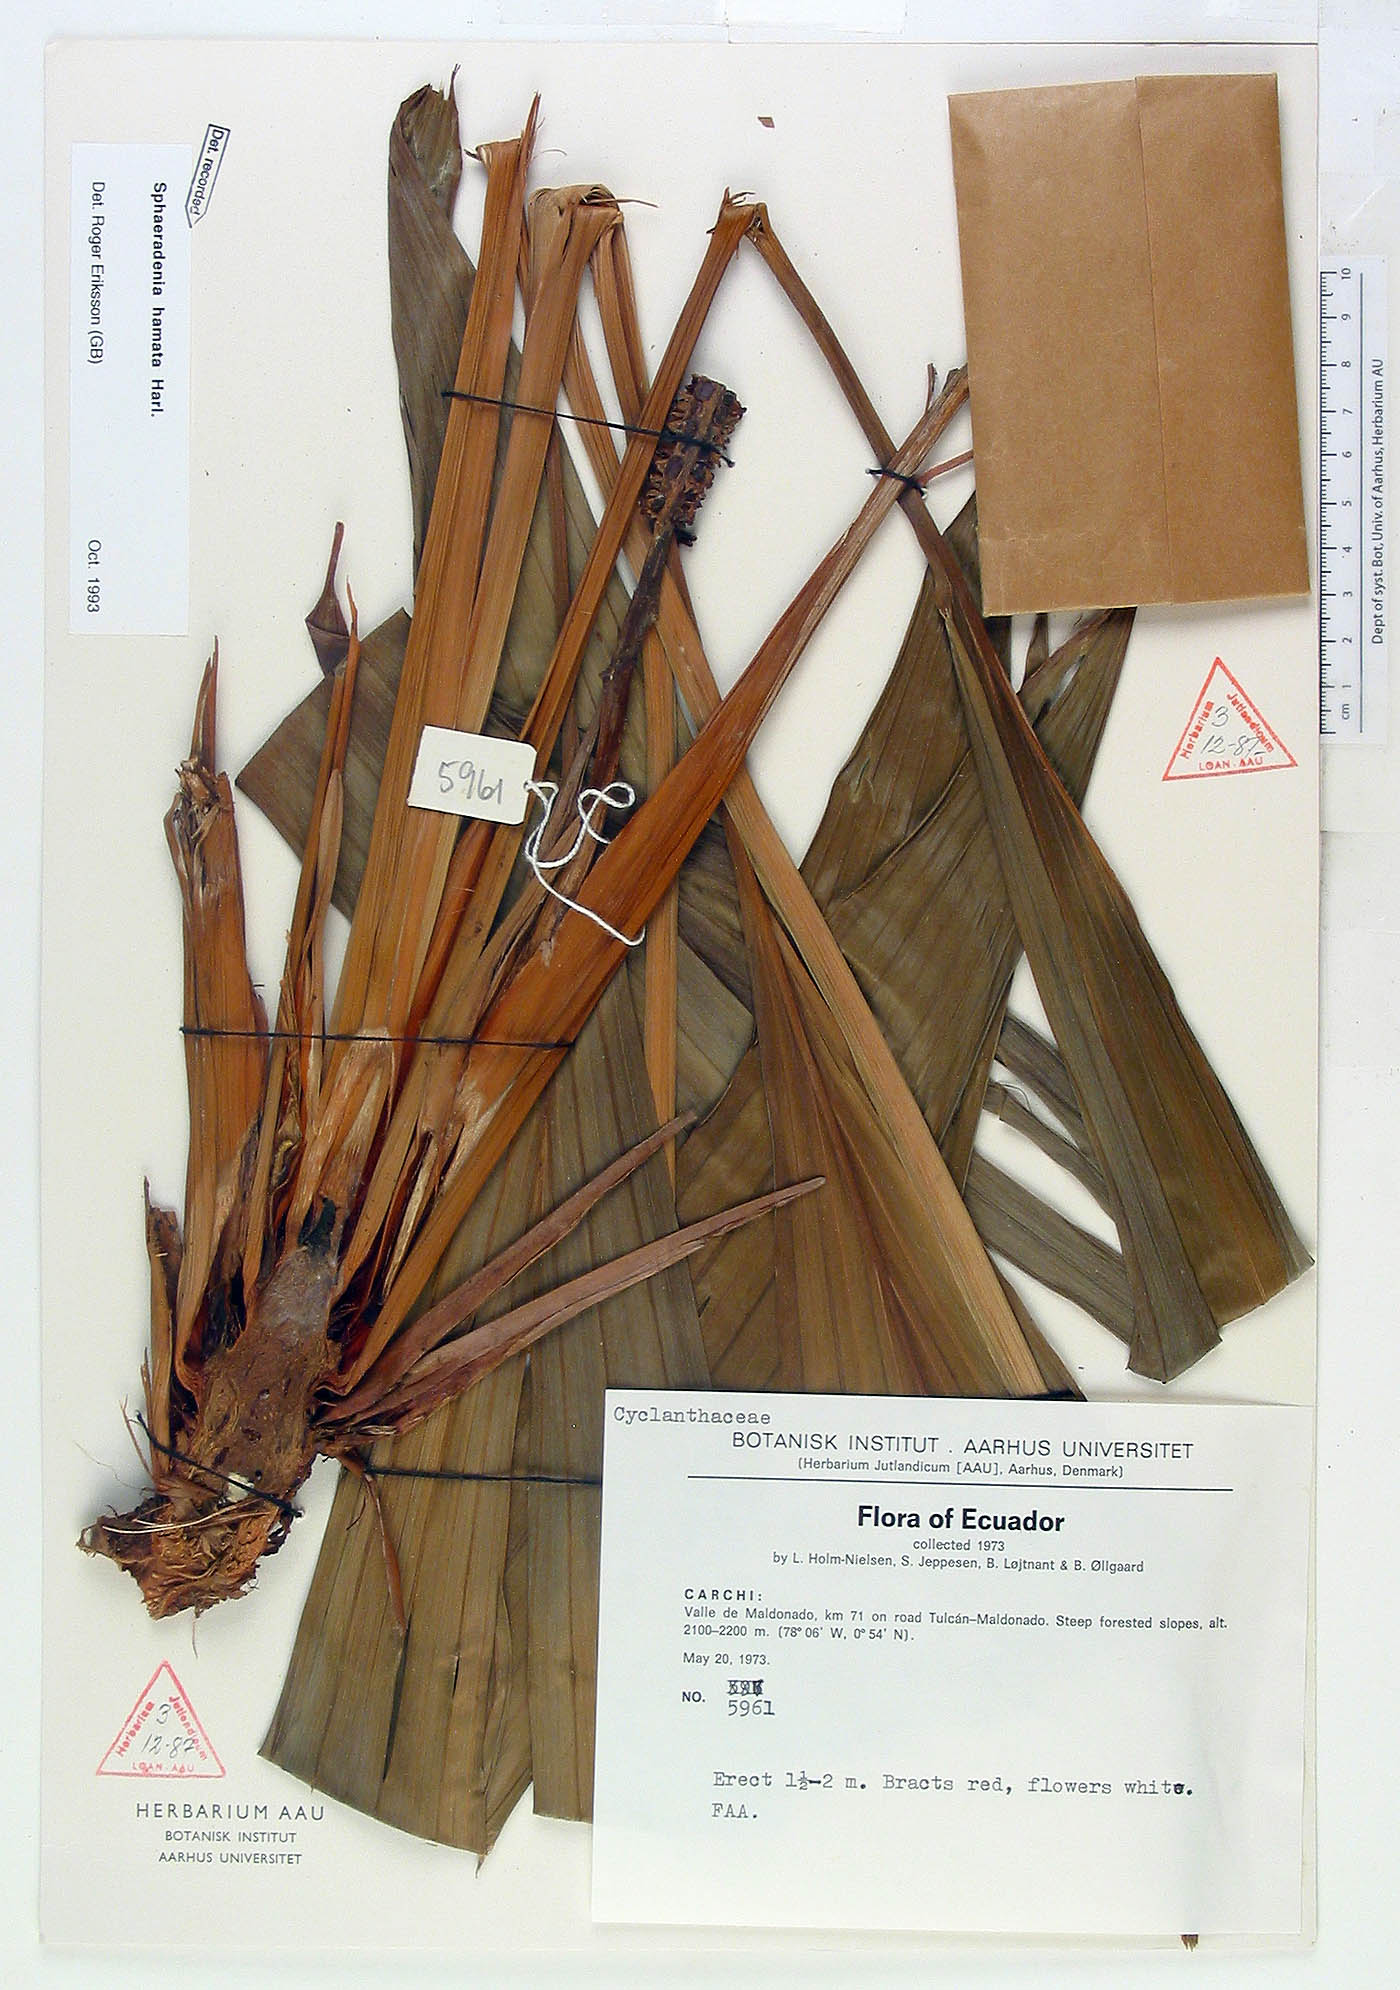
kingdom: Plantae
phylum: Tracheophyta
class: Liliopsida
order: Pandanales
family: Cyclanthaceae
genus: Sphaeradenia
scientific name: Sphaeradenia hamata
